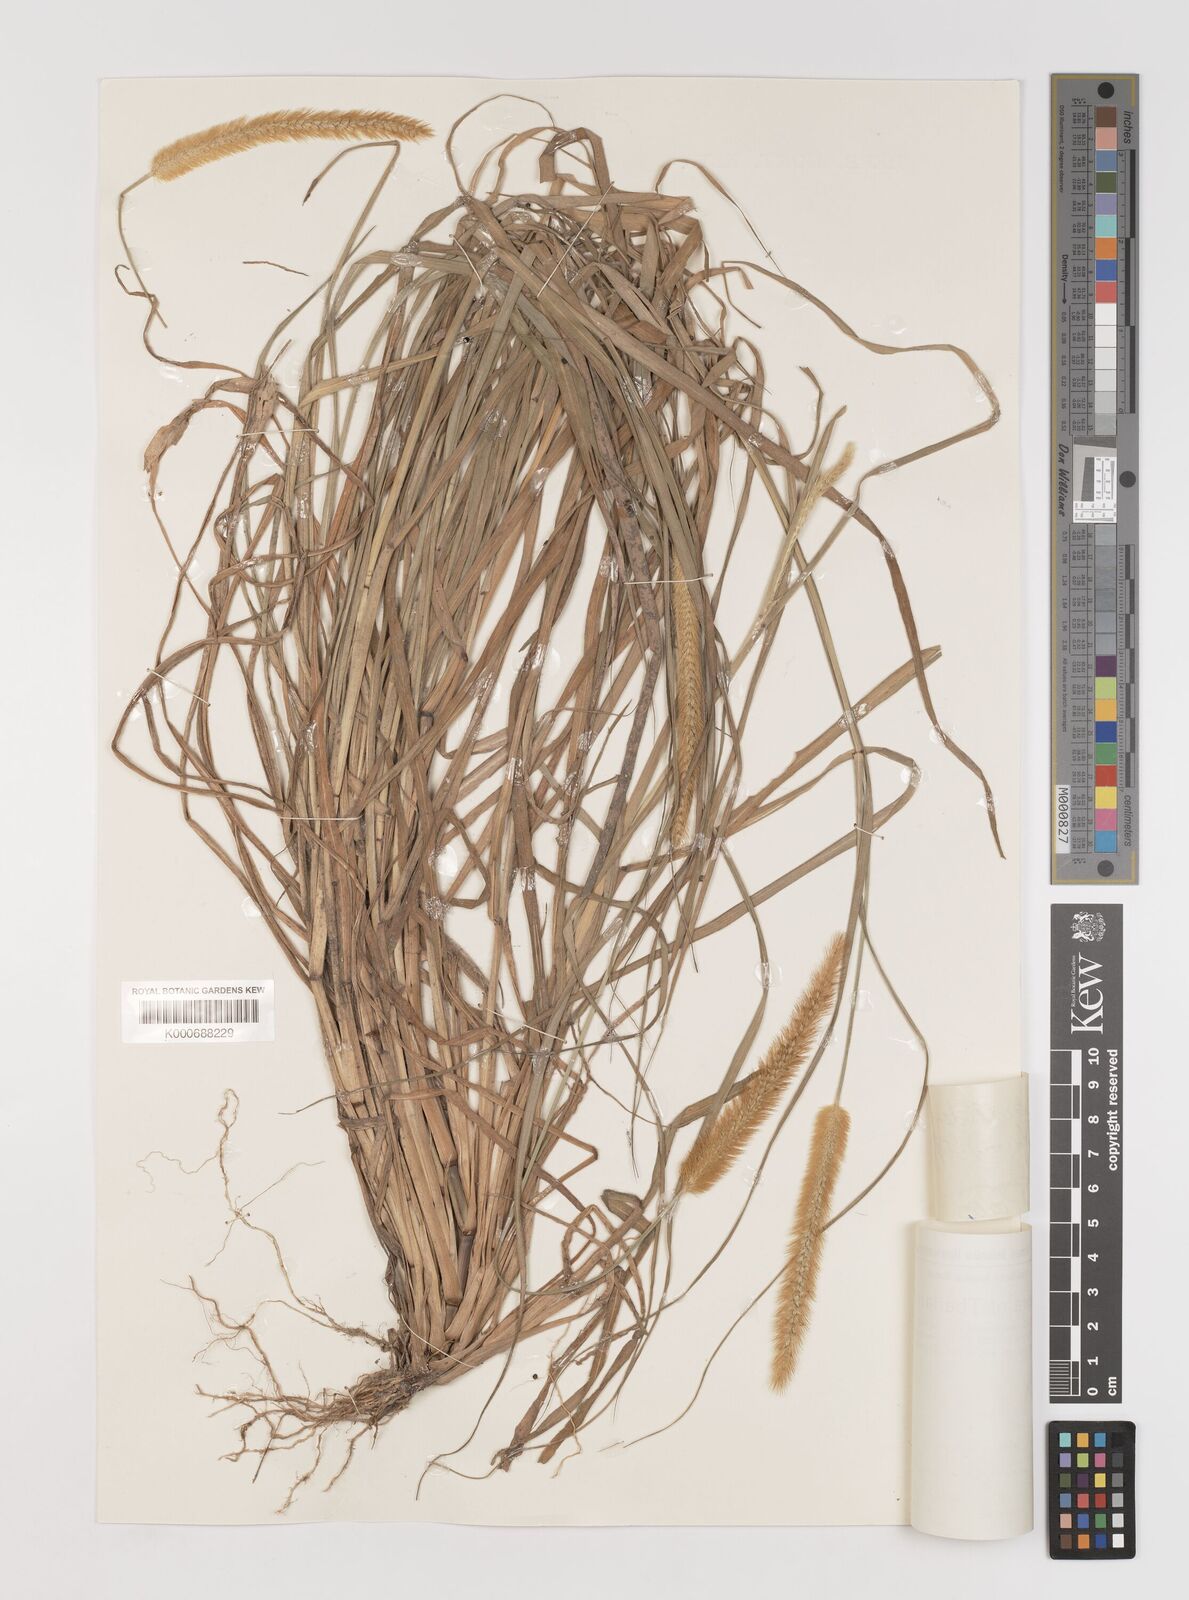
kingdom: Plantae
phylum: Tracheophyta
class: Liliopsida
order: Poales
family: Poaceae
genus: Setaria
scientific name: Setaria pumila
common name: Yellow bristle-grass
